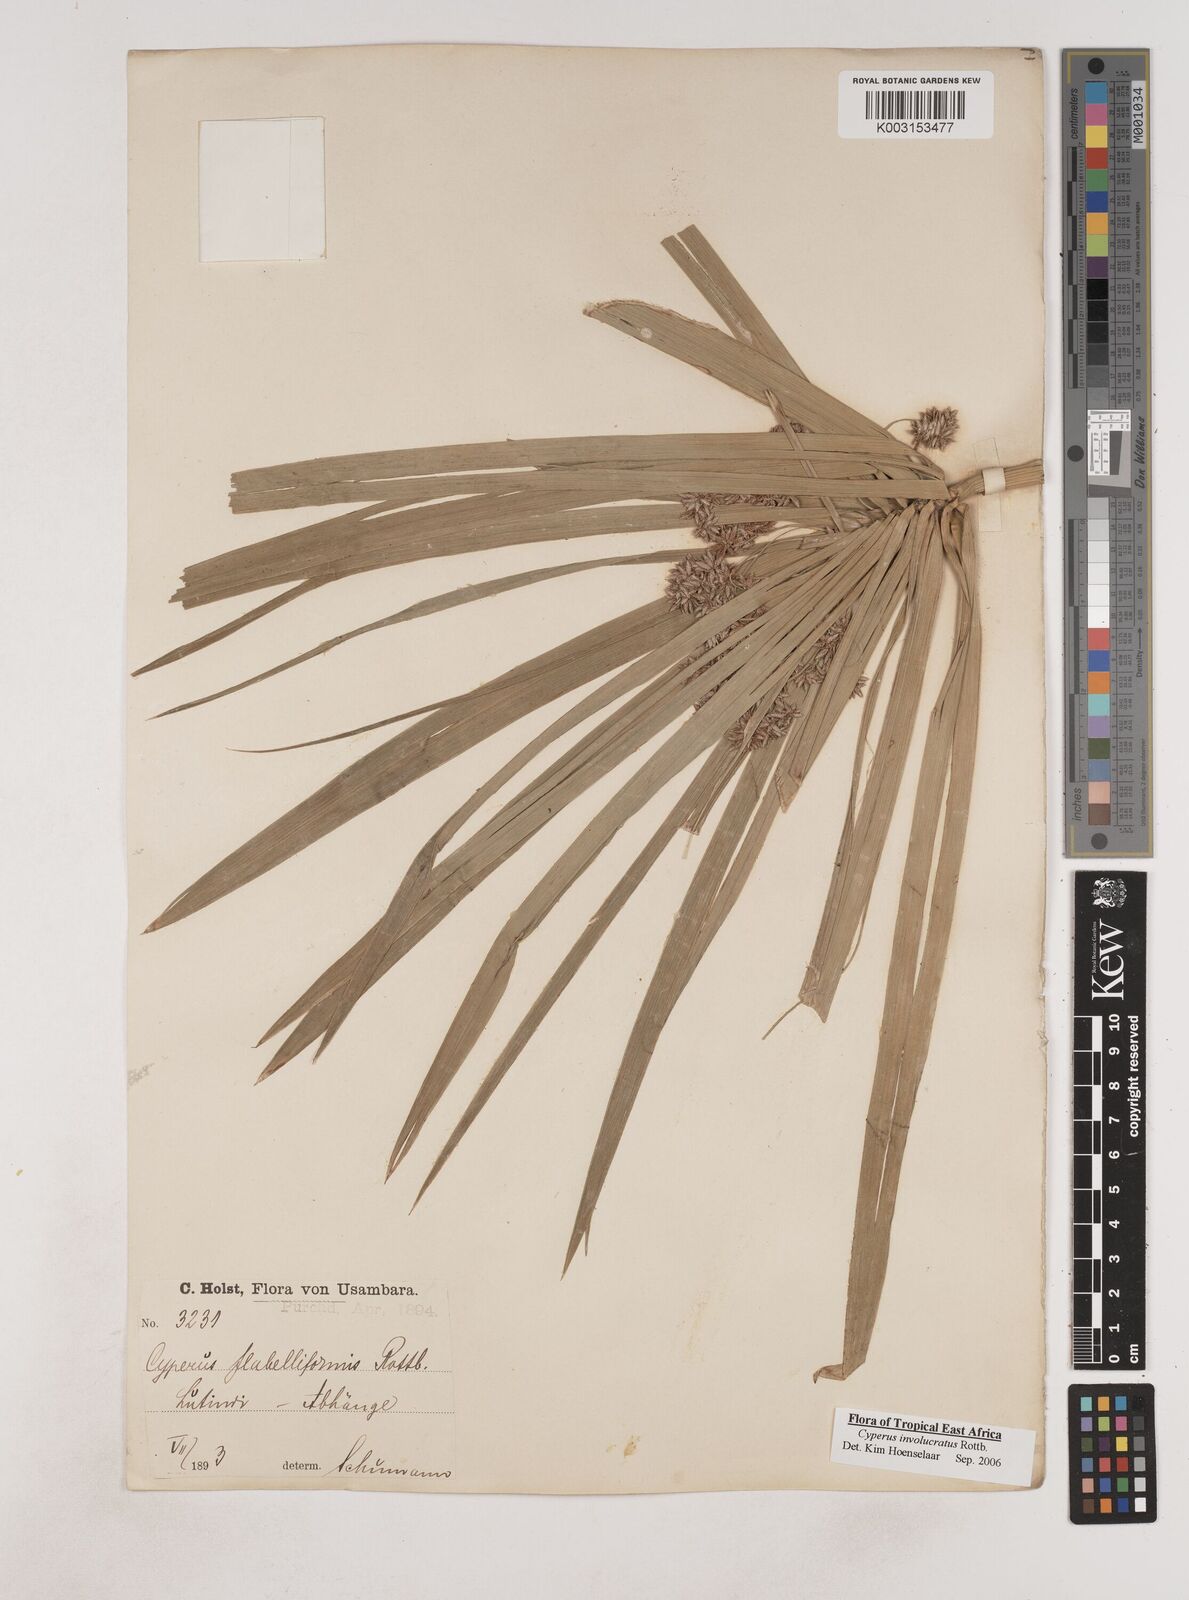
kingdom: Plantae
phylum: Tracheophyta
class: Liliopsida
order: Poales
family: Cyperaceae
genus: Cyperus
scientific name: Cyperus alternifolius
